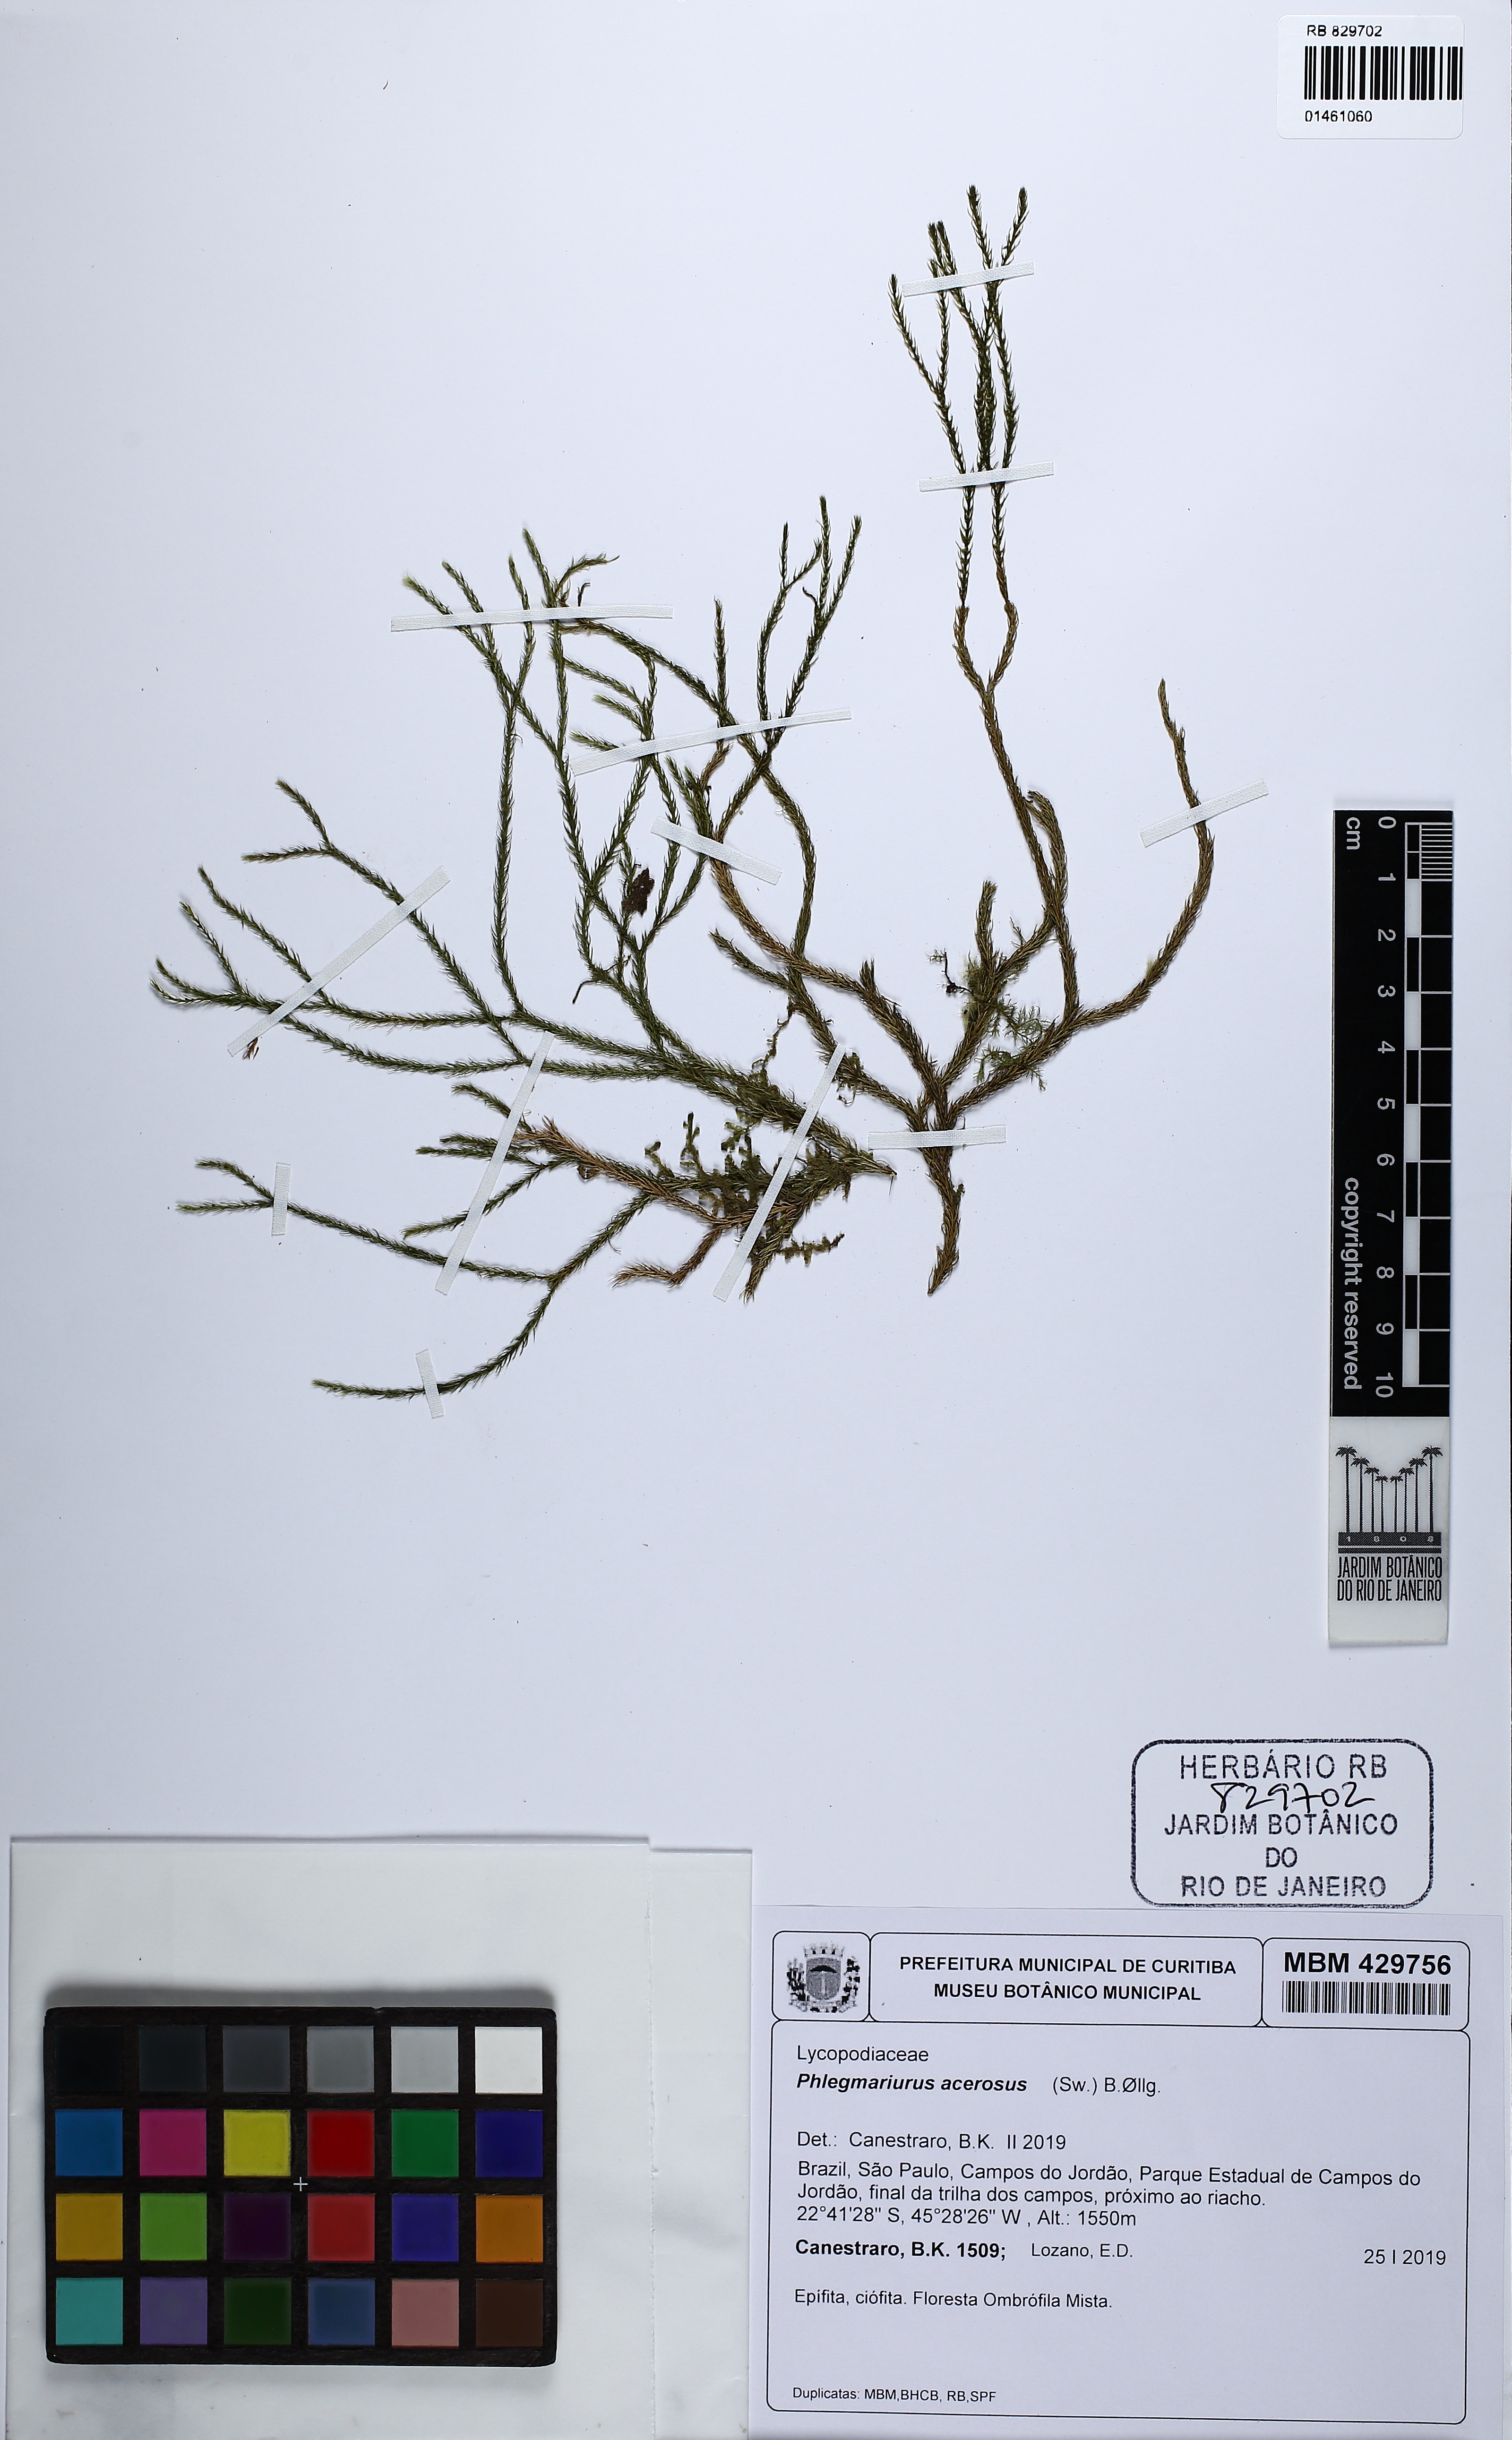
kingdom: Plantae
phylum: Tracheophyta
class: Lycopodiopsida
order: Lycopodiales
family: Lycopodiaceae
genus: Phlegmariurus
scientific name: Phlegmariurus acerosus
